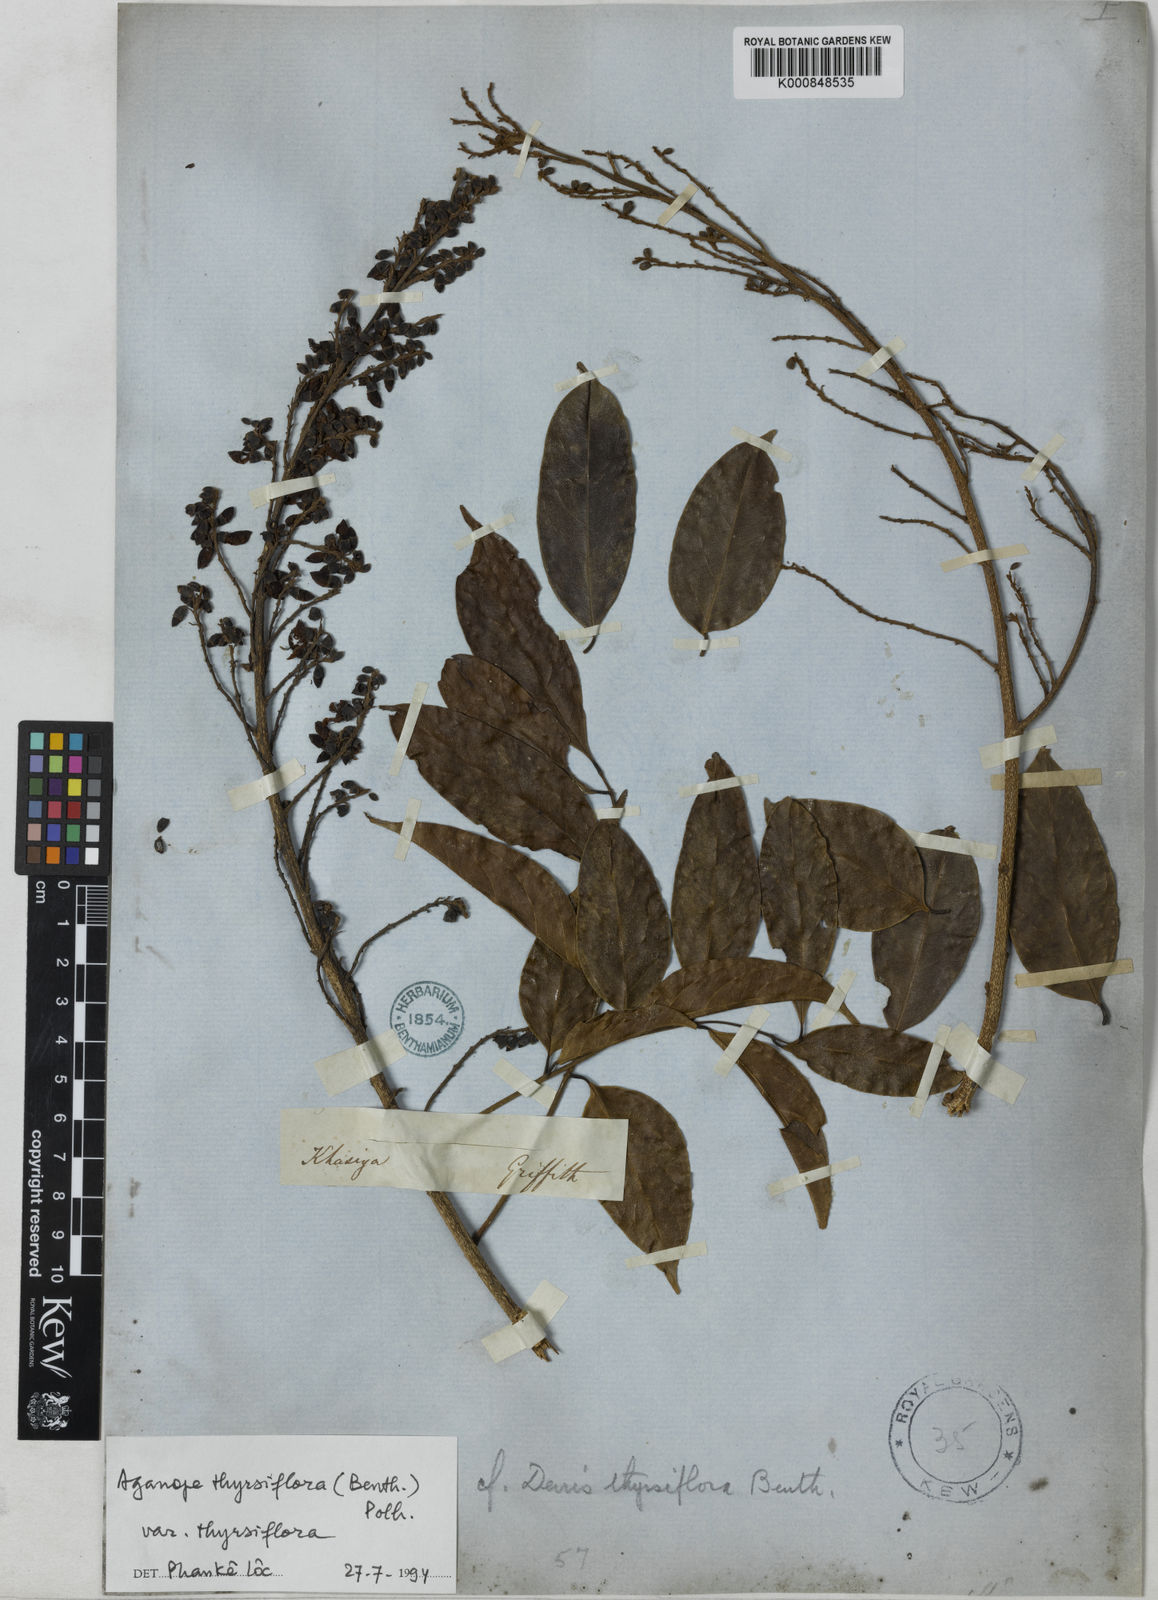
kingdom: Plantae
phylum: Tracheophyta
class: Magnoliopsida
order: Fabales
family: Fabaceae
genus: Aganope
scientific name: Aganope thyrsiflora
